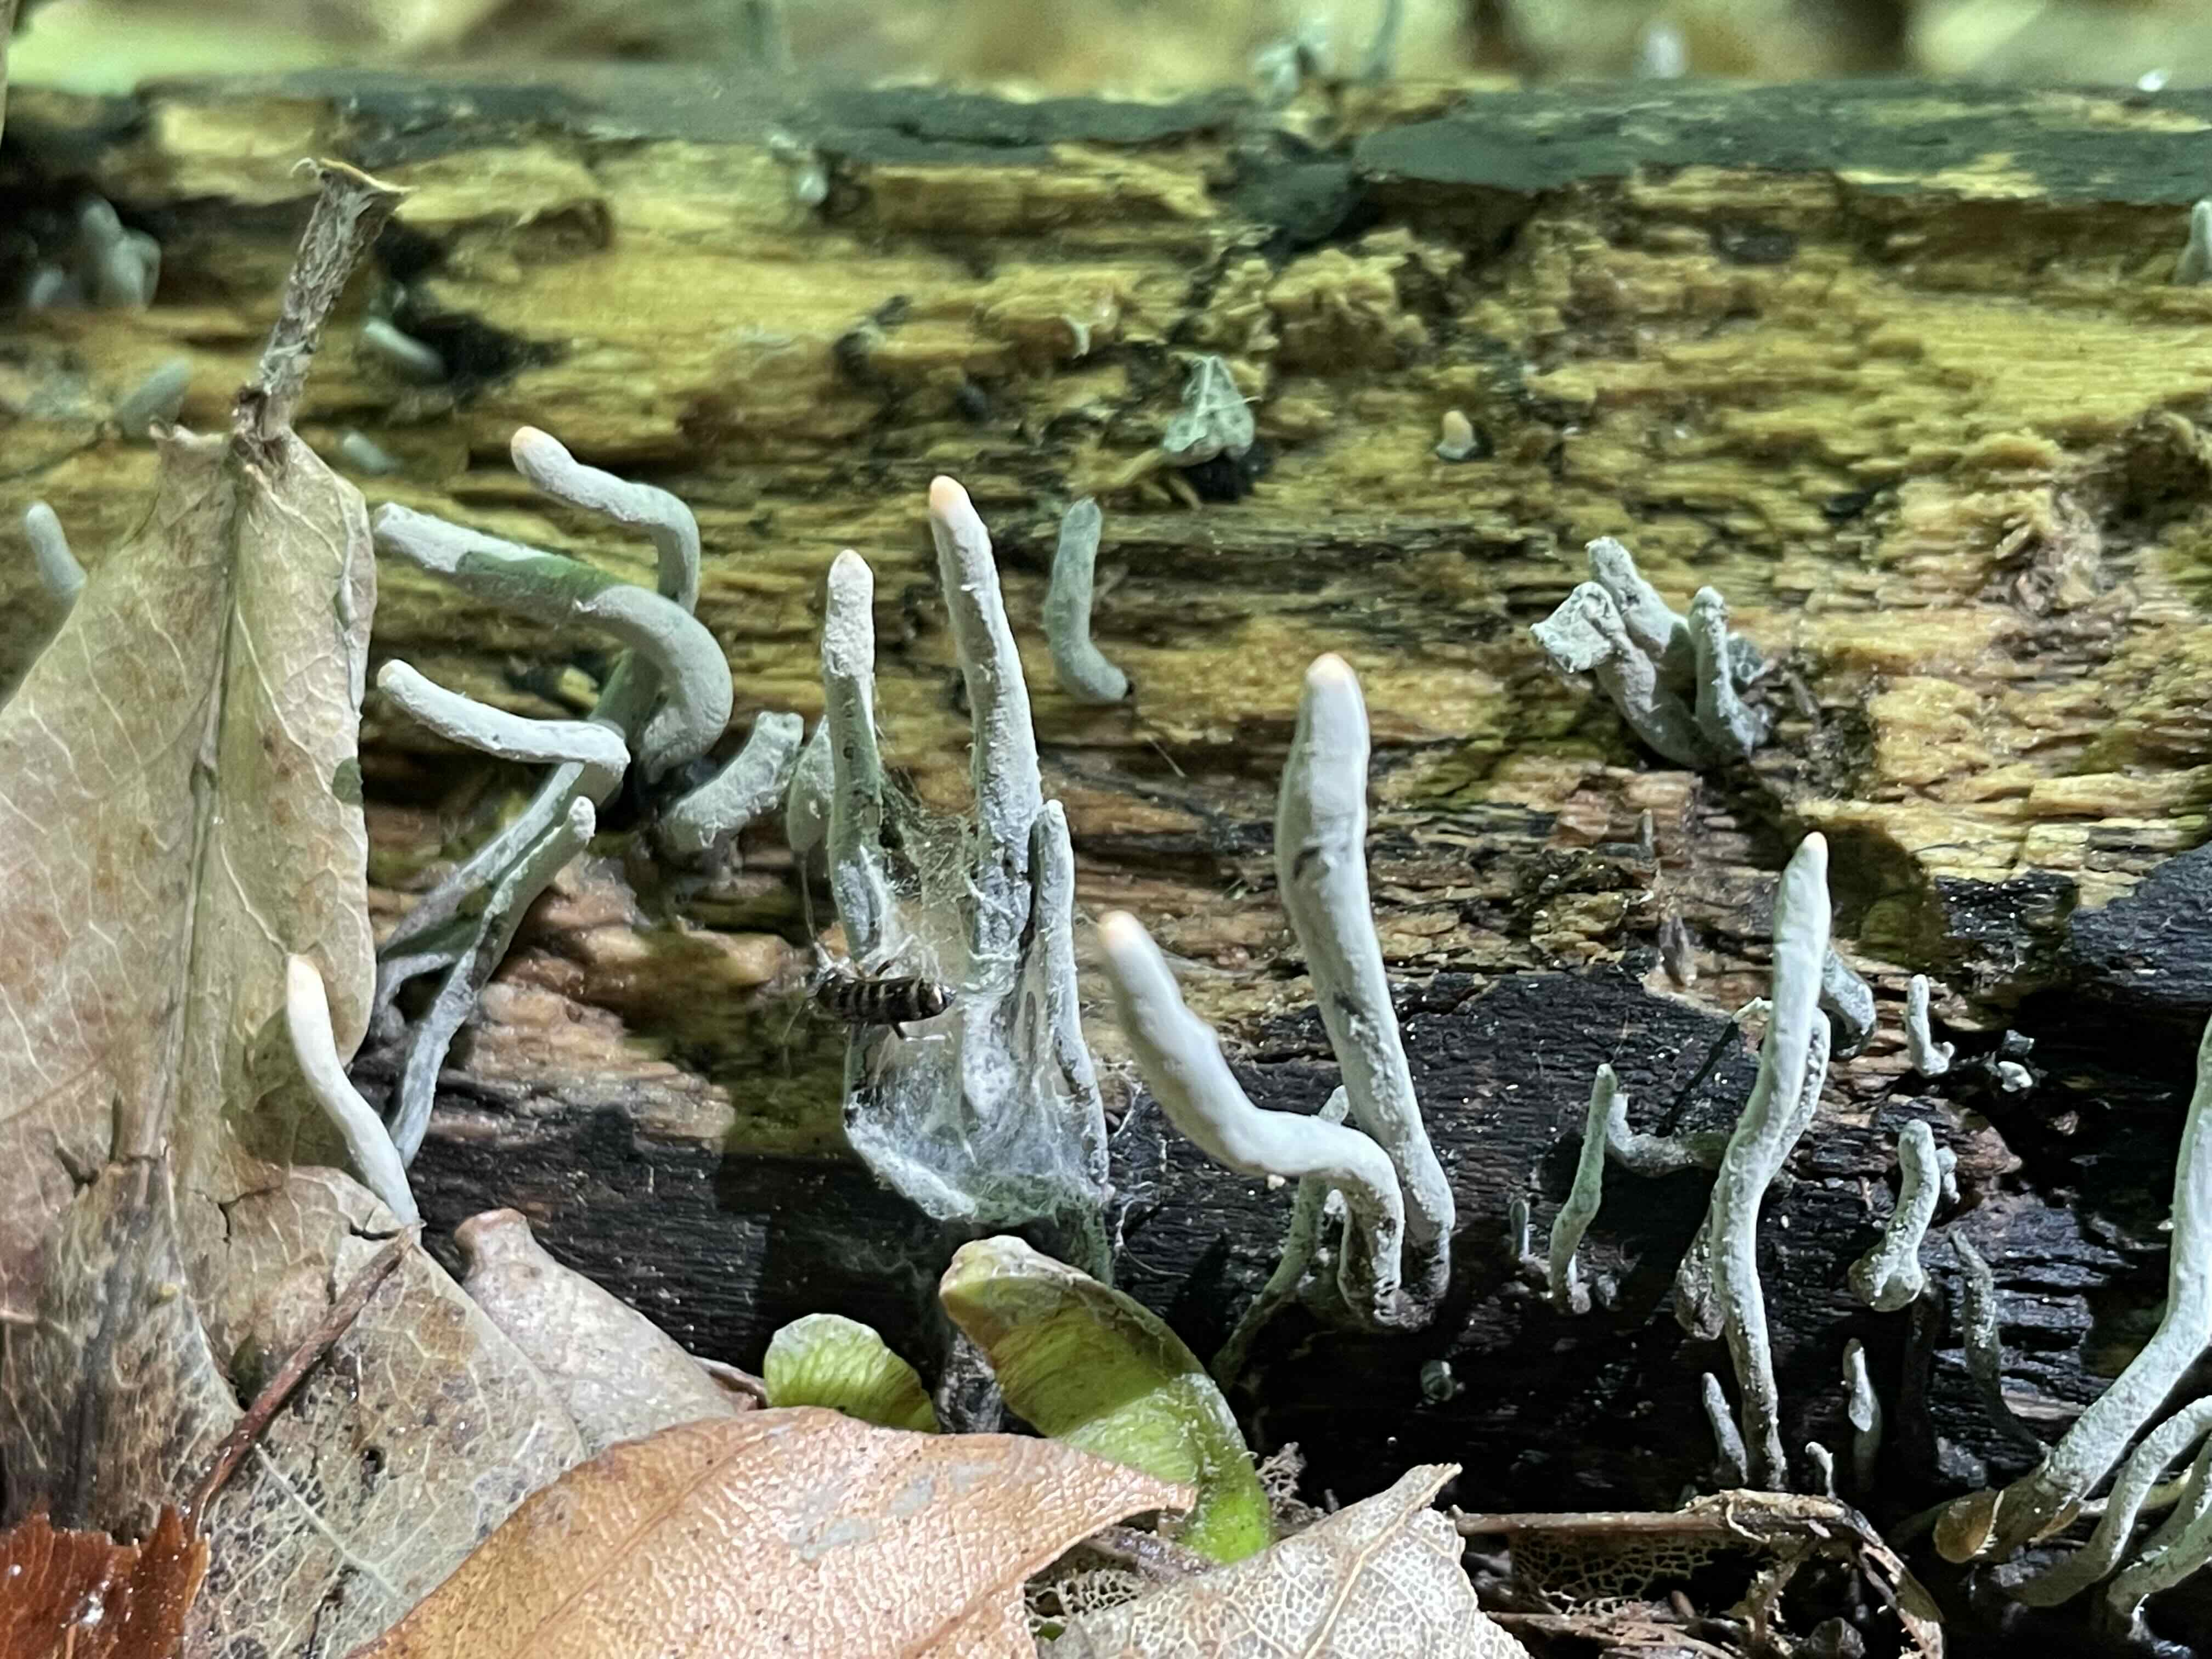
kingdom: Fungi
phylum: Ascomycota
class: Sordariomycetes
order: Xylariales
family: Xylariaceae
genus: Xylaria
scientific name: Xylaria longipes
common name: slank stødsvamp
